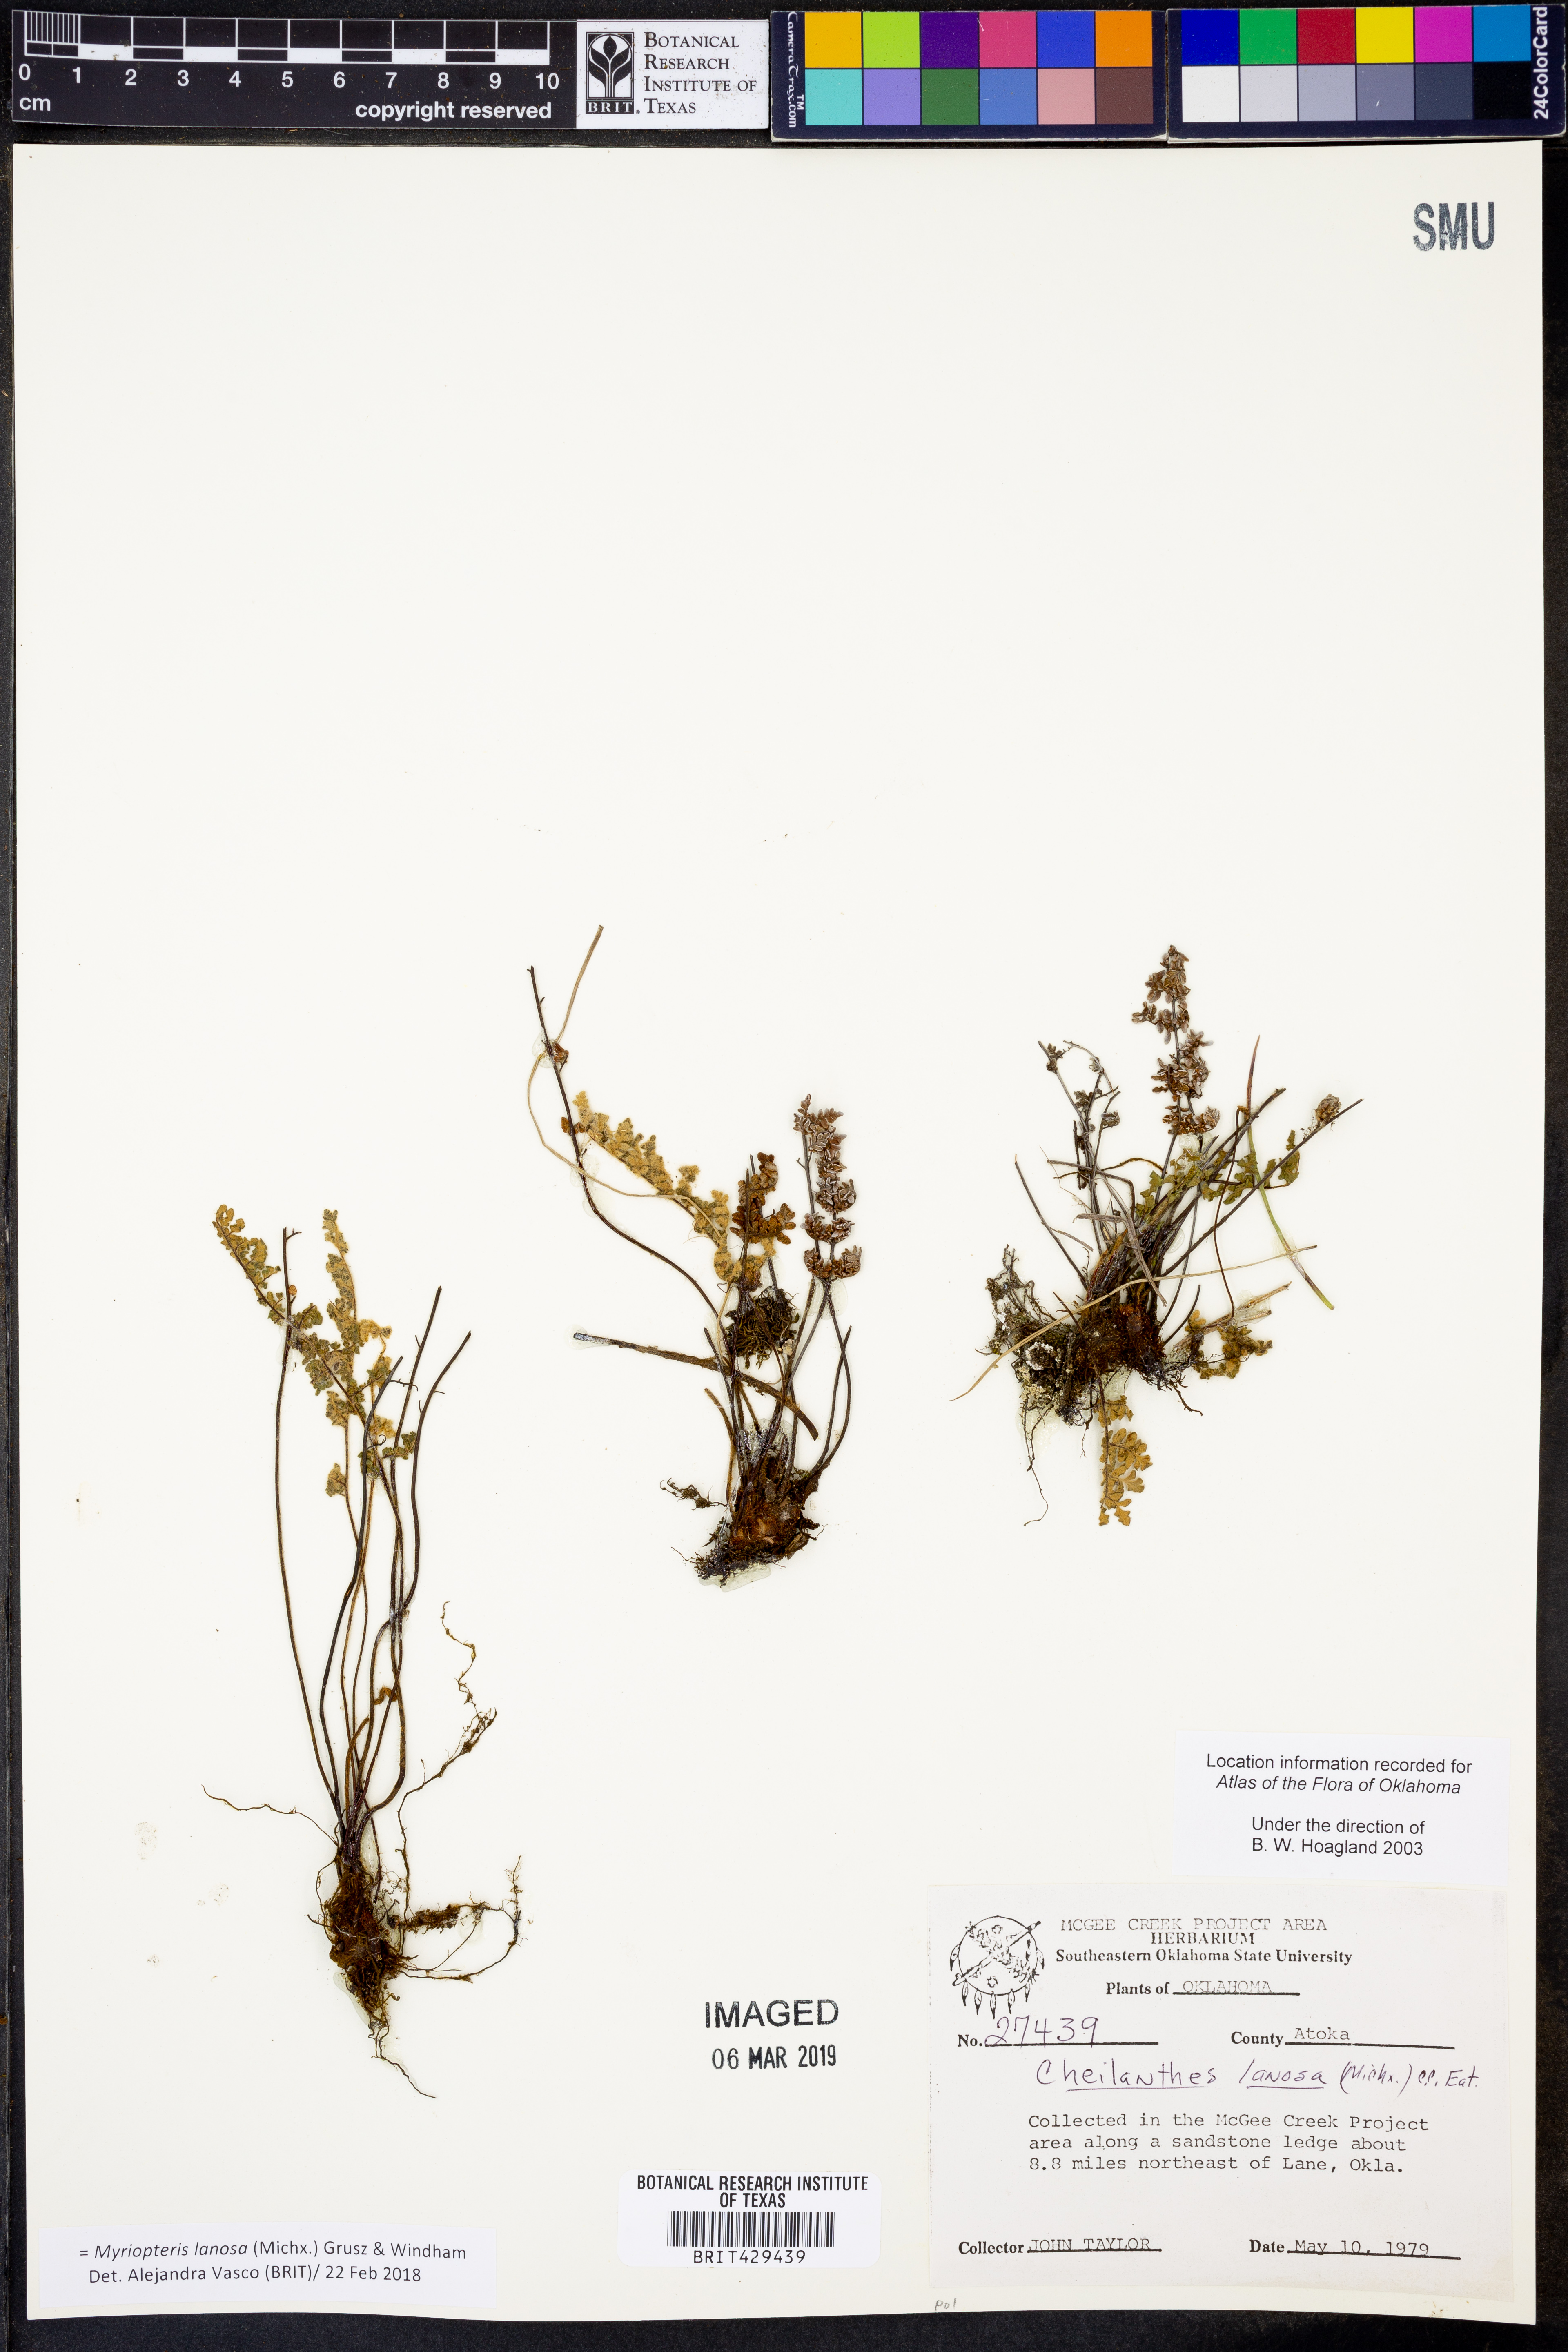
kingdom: Plantae
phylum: Tracheophyta
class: Polypodiopsida
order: Polypodiales
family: Pteridaceae
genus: Myriopteris
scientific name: Myriopteris lanosa
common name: Hairy lip fern
